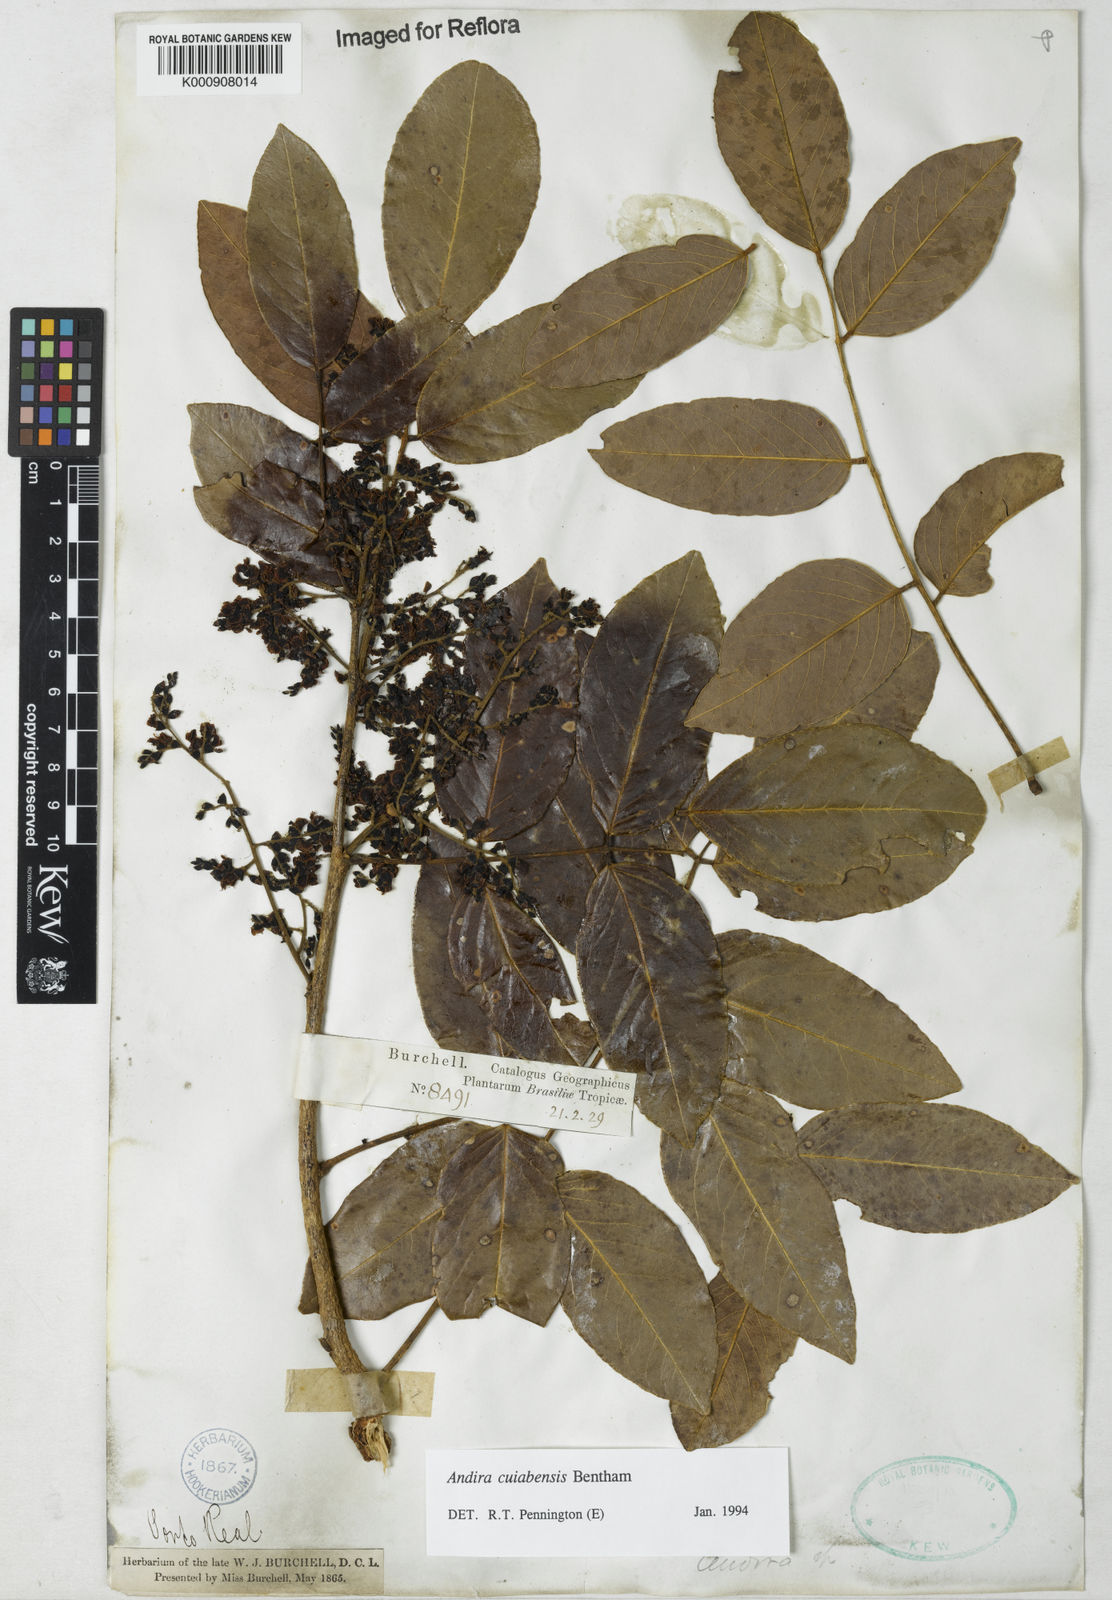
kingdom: Plantae
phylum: Tracheophyta
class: Magnoliopsida
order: Fabales
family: Fabaceae
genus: Andira
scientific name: Andira cujabensis
